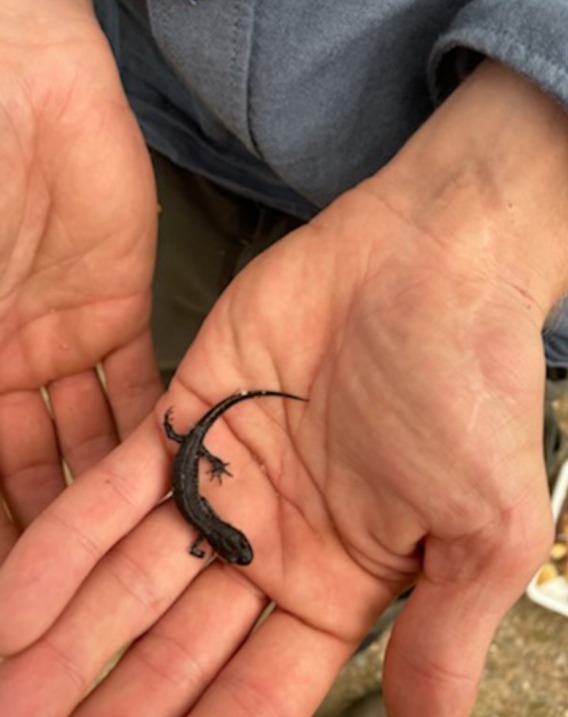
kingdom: Animalia
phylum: Chordata
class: Amphibia
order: Caudata
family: Salamandridae
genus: Triturus
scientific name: Triturus cristatus
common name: Stor vandsalamander
